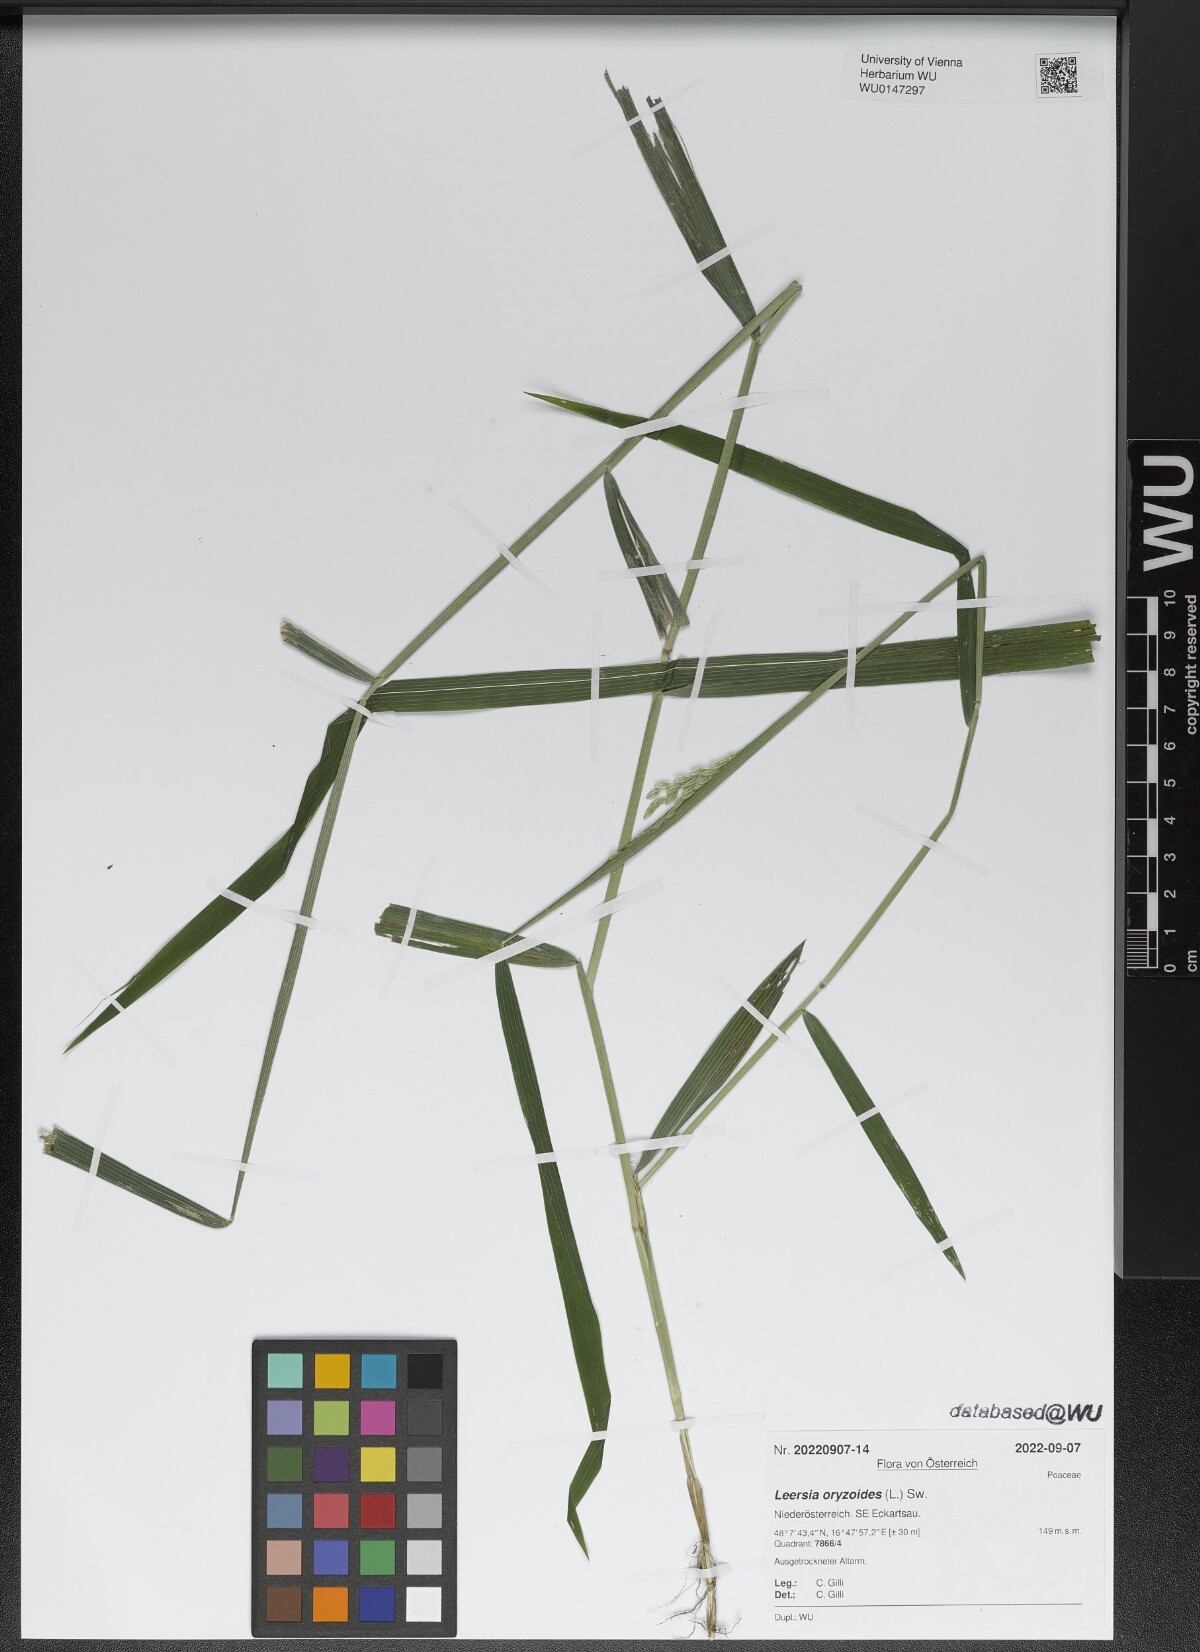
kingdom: Plantae
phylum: Tracheophyta
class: Liliopsida
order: Poales
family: Poaceae
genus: Leersia
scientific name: Leersia oryzoides
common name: Cut-grass
